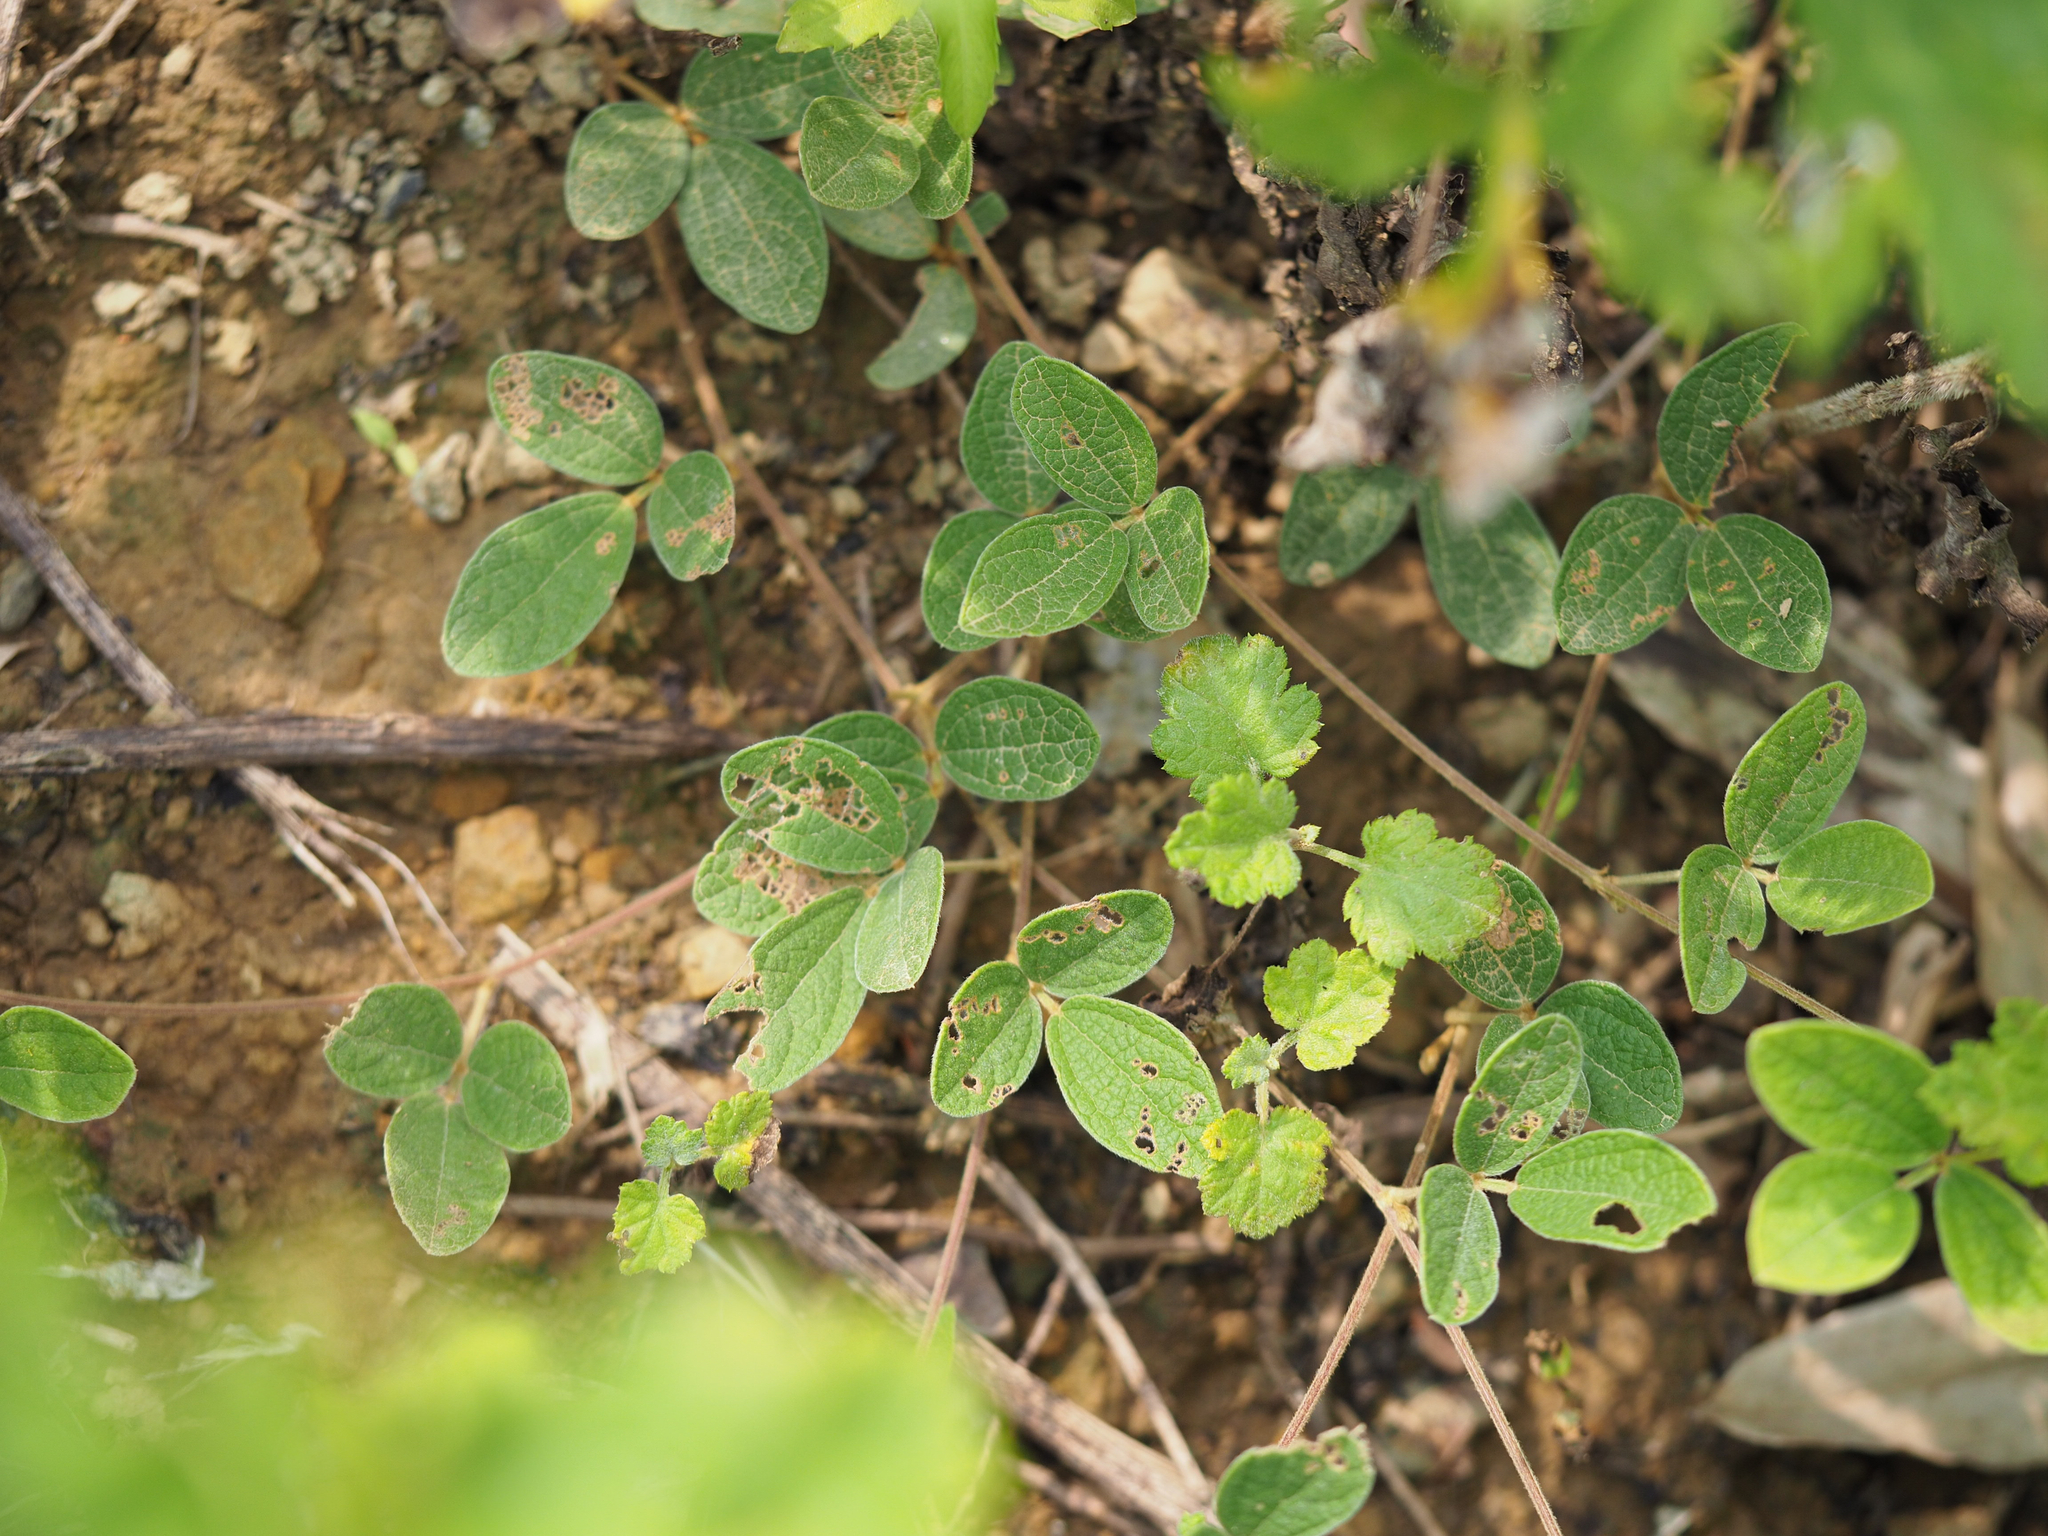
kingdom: Plantae
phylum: Tracheophyta
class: Magnoliopsida
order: Fabales
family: Fabaceae
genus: Cajanus
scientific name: Cajanus scarabaeoides
